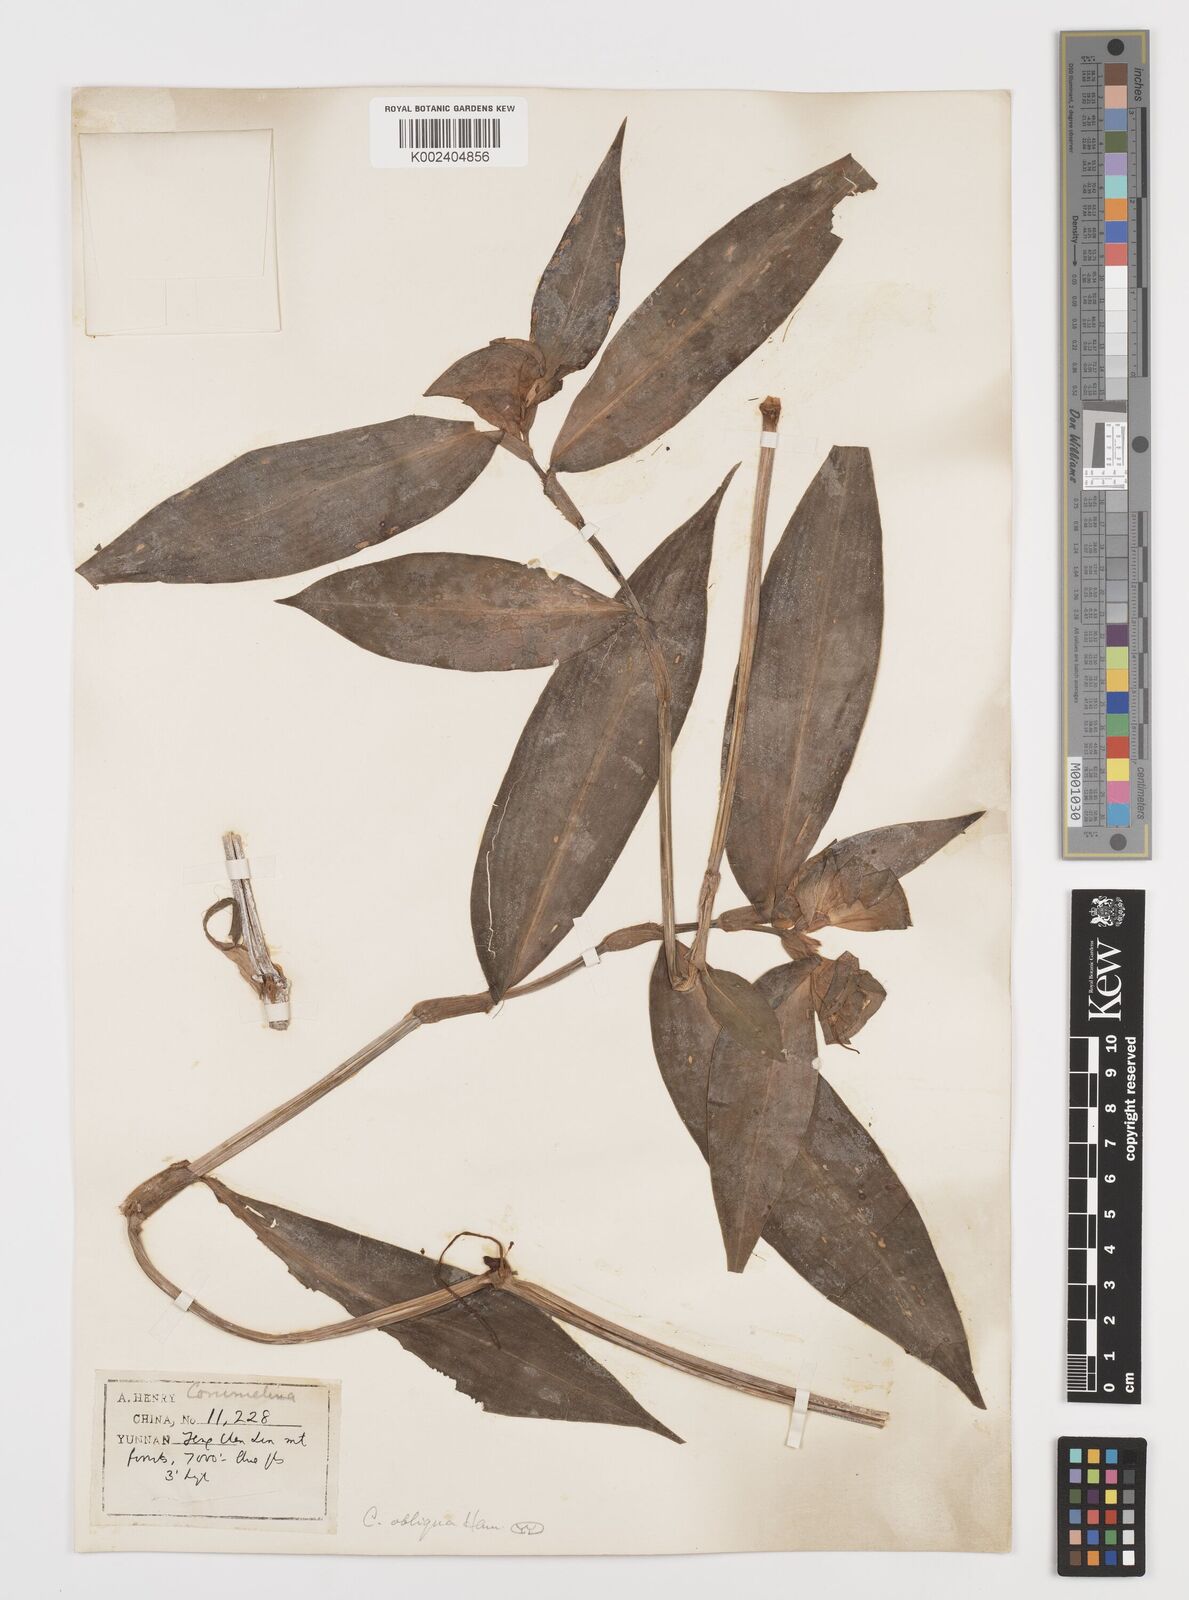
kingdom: Plantae
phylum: Tracheophyta
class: Liliopsida
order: Commelinales
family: Commelinaceae
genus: Commelina
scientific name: Commelina obliqua
